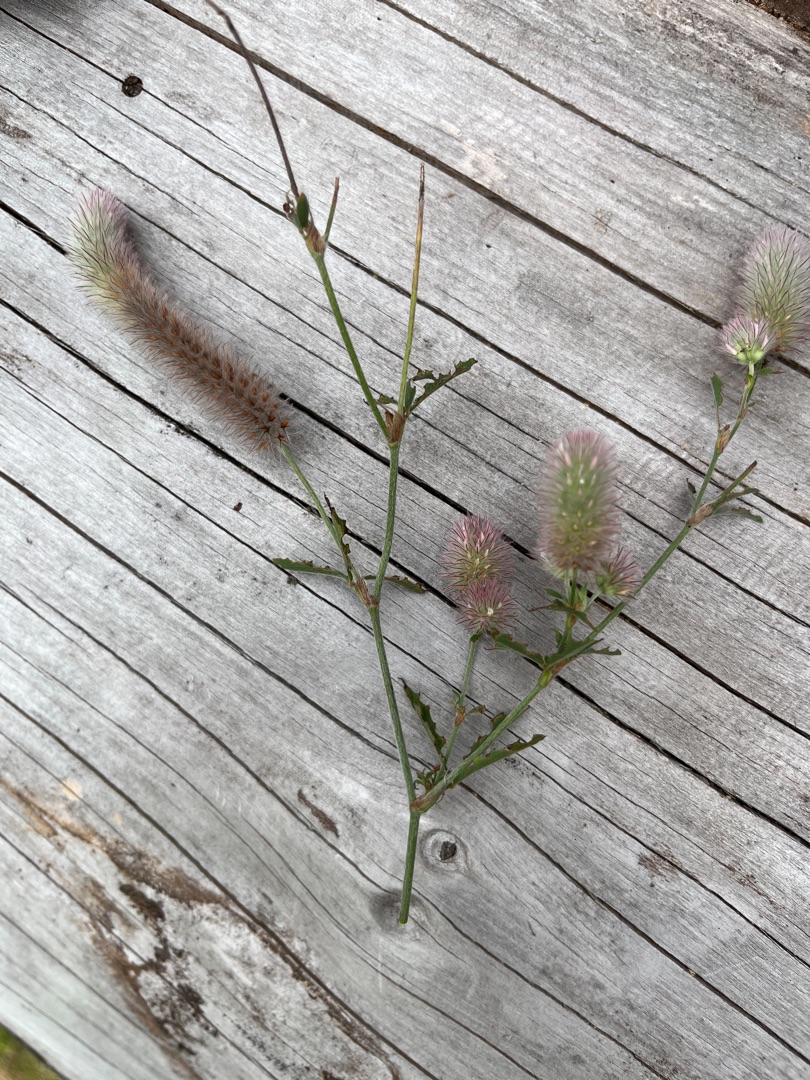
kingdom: Plantae
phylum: Tracheophyta
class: Magnoliopsida
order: Fabales
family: Fabaceae
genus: Trifolium
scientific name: Trifolium arvense
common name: Hare-kløver
